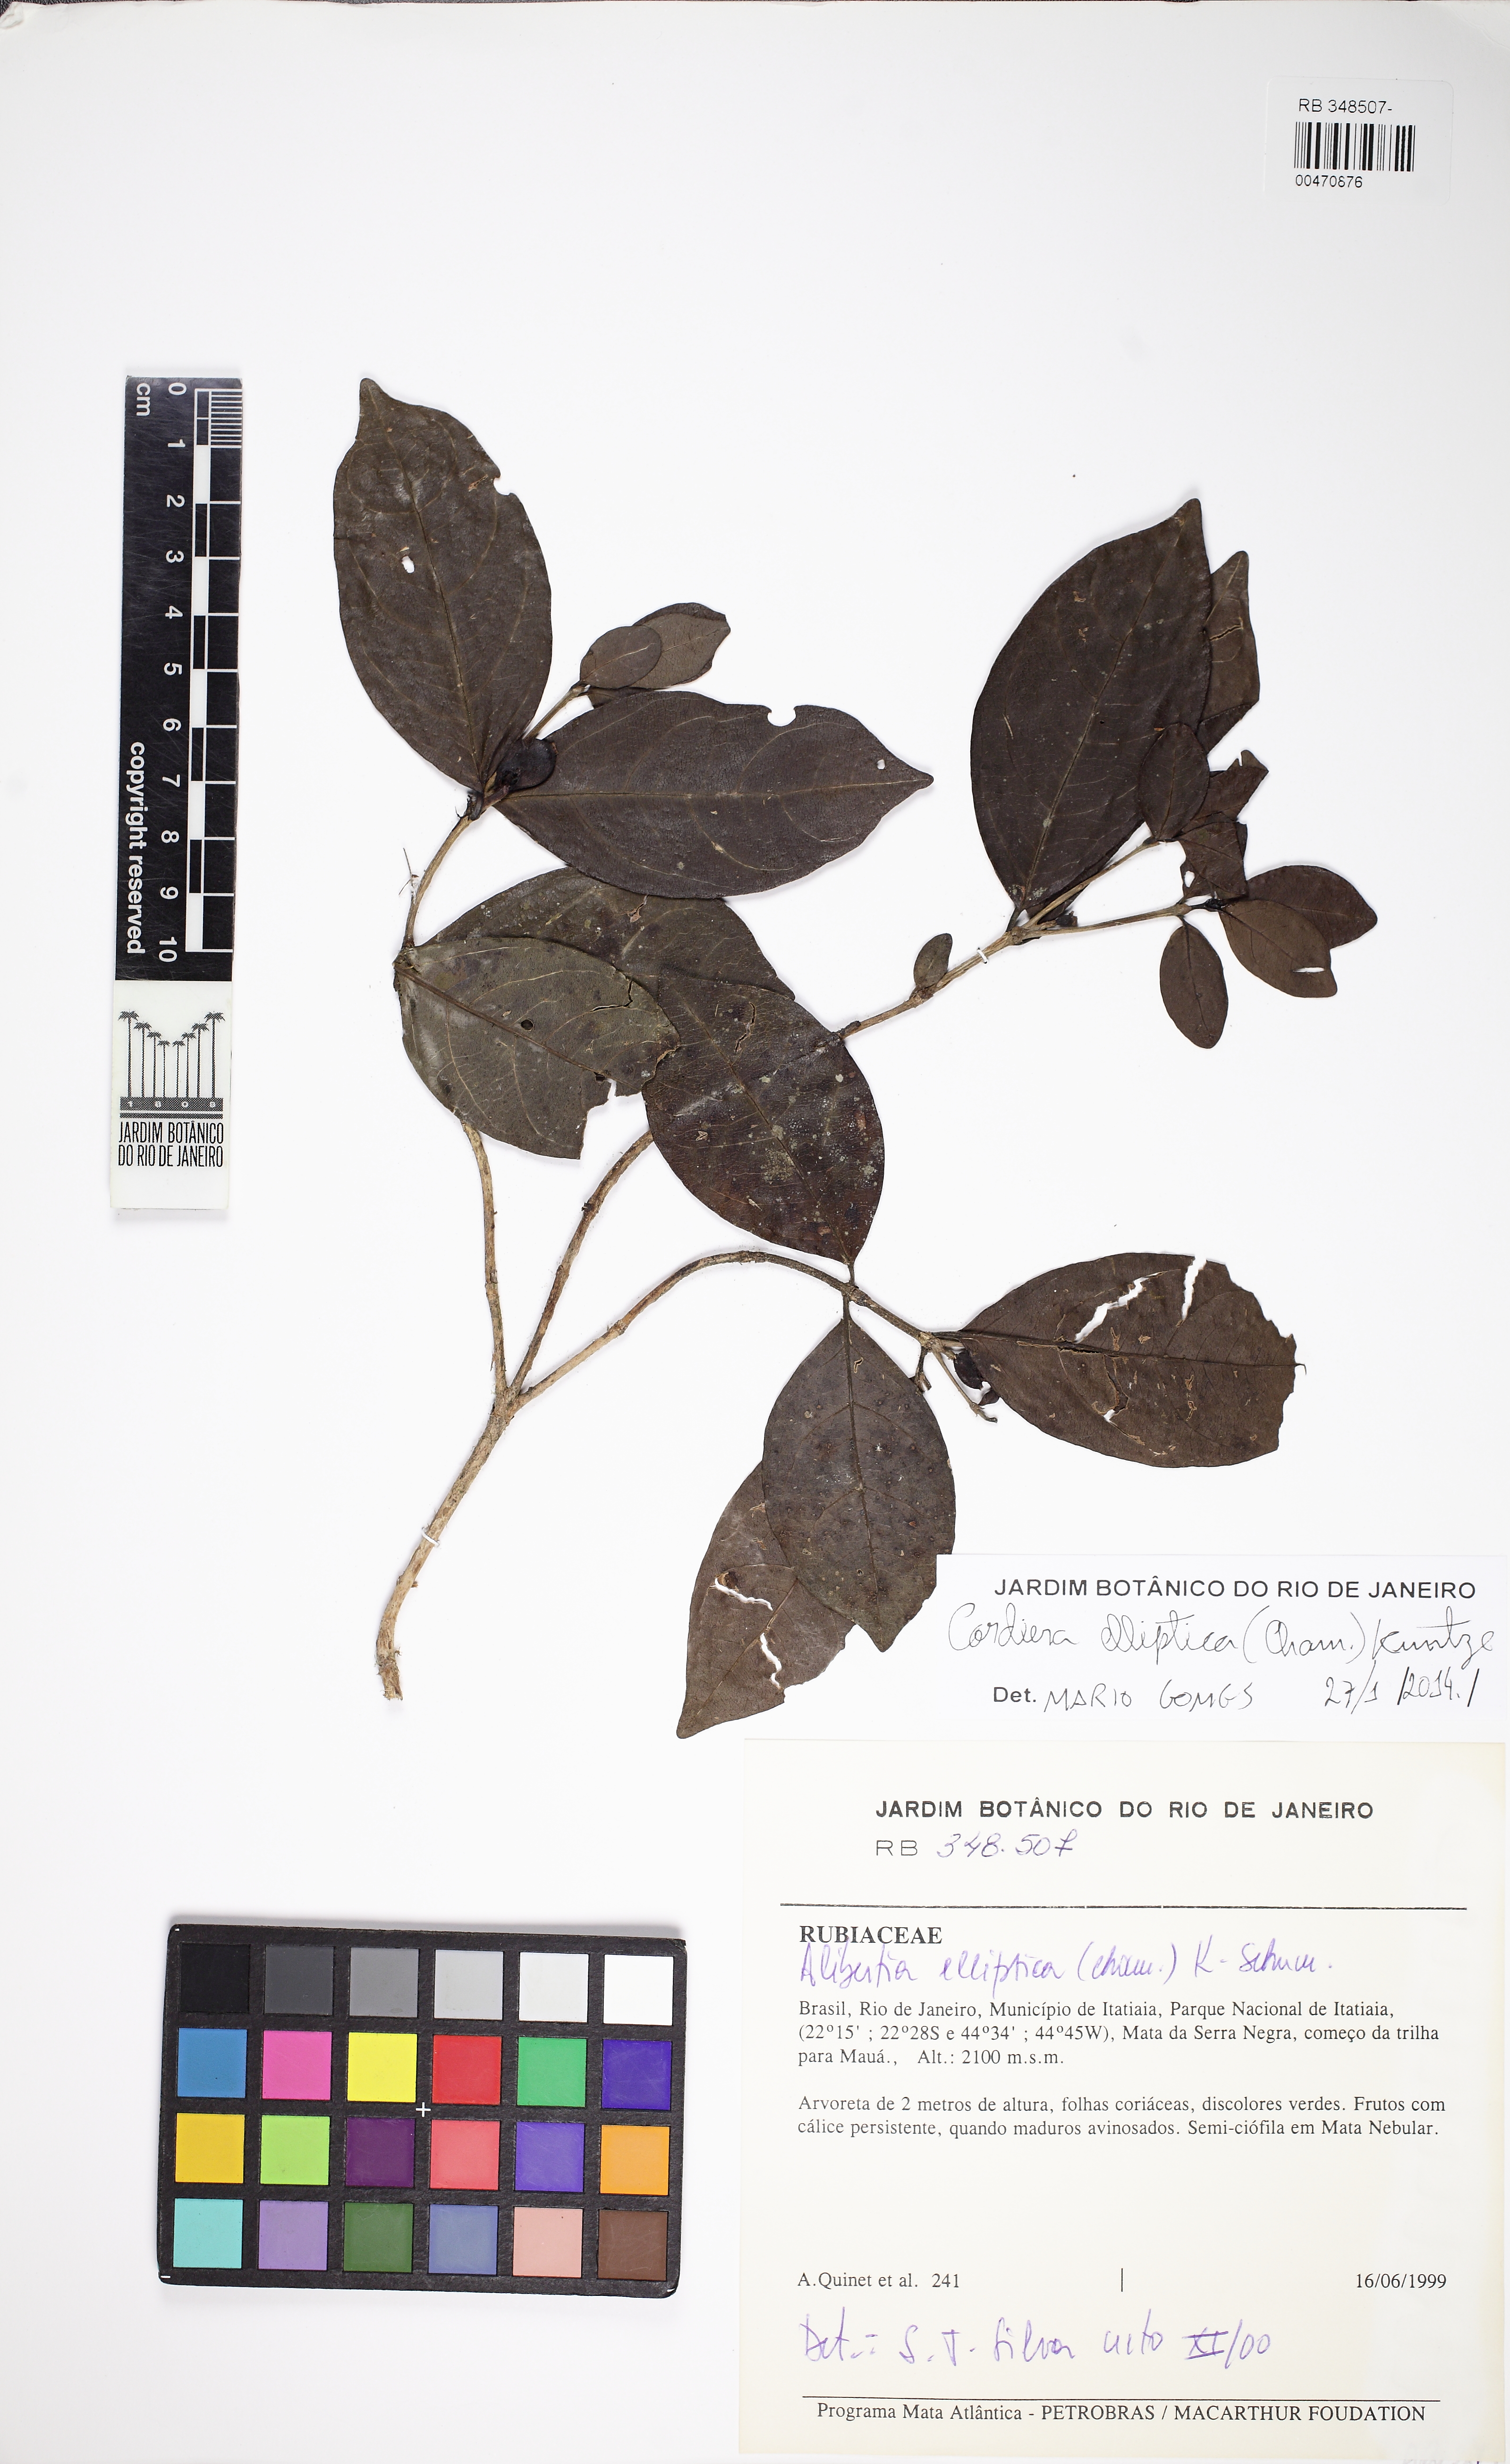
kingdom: Plantae
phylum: Tracheophyta
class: Magnoliopsida
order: Gentianales
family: Rubiaceae
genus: Cordiera
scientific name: Cordiera concolor
